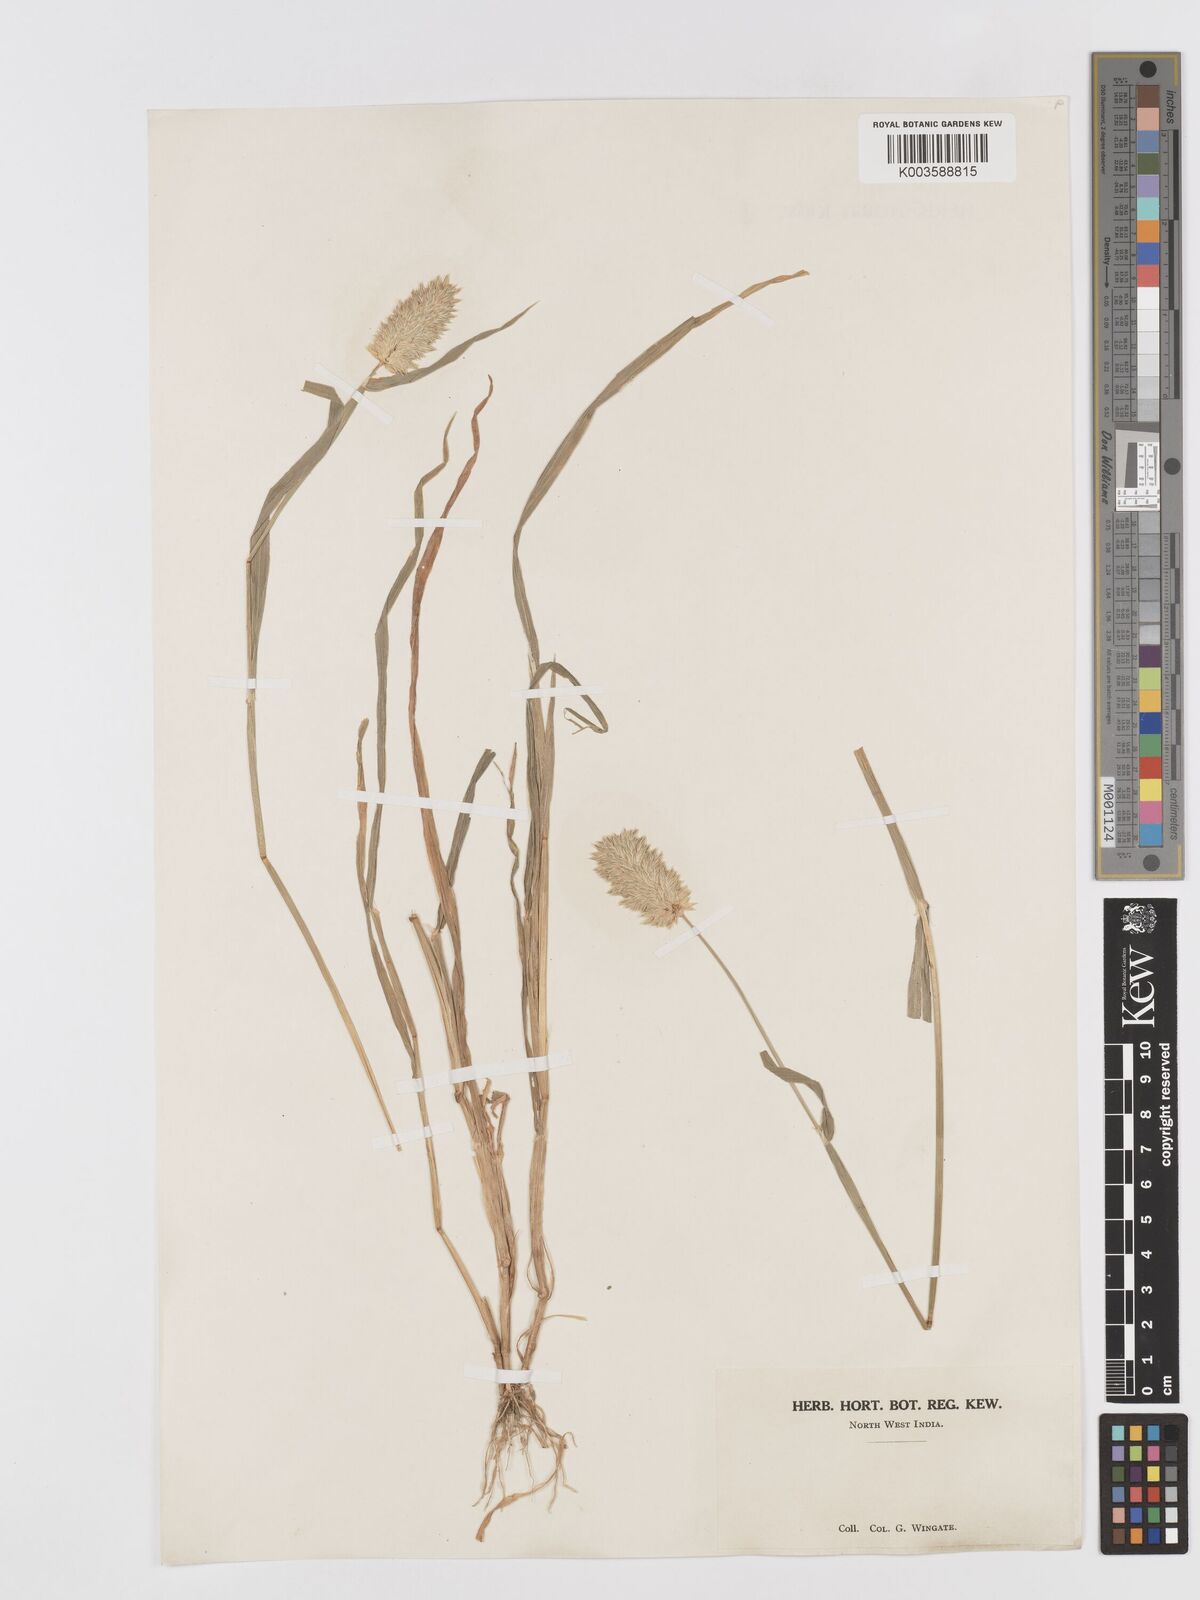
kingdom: Plantae
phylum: Tracheophyta
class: Liliopsida
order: Poales
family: Poaceae
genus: Phalaris
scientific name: Phalaris minor
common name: Littleseed canarygrass
